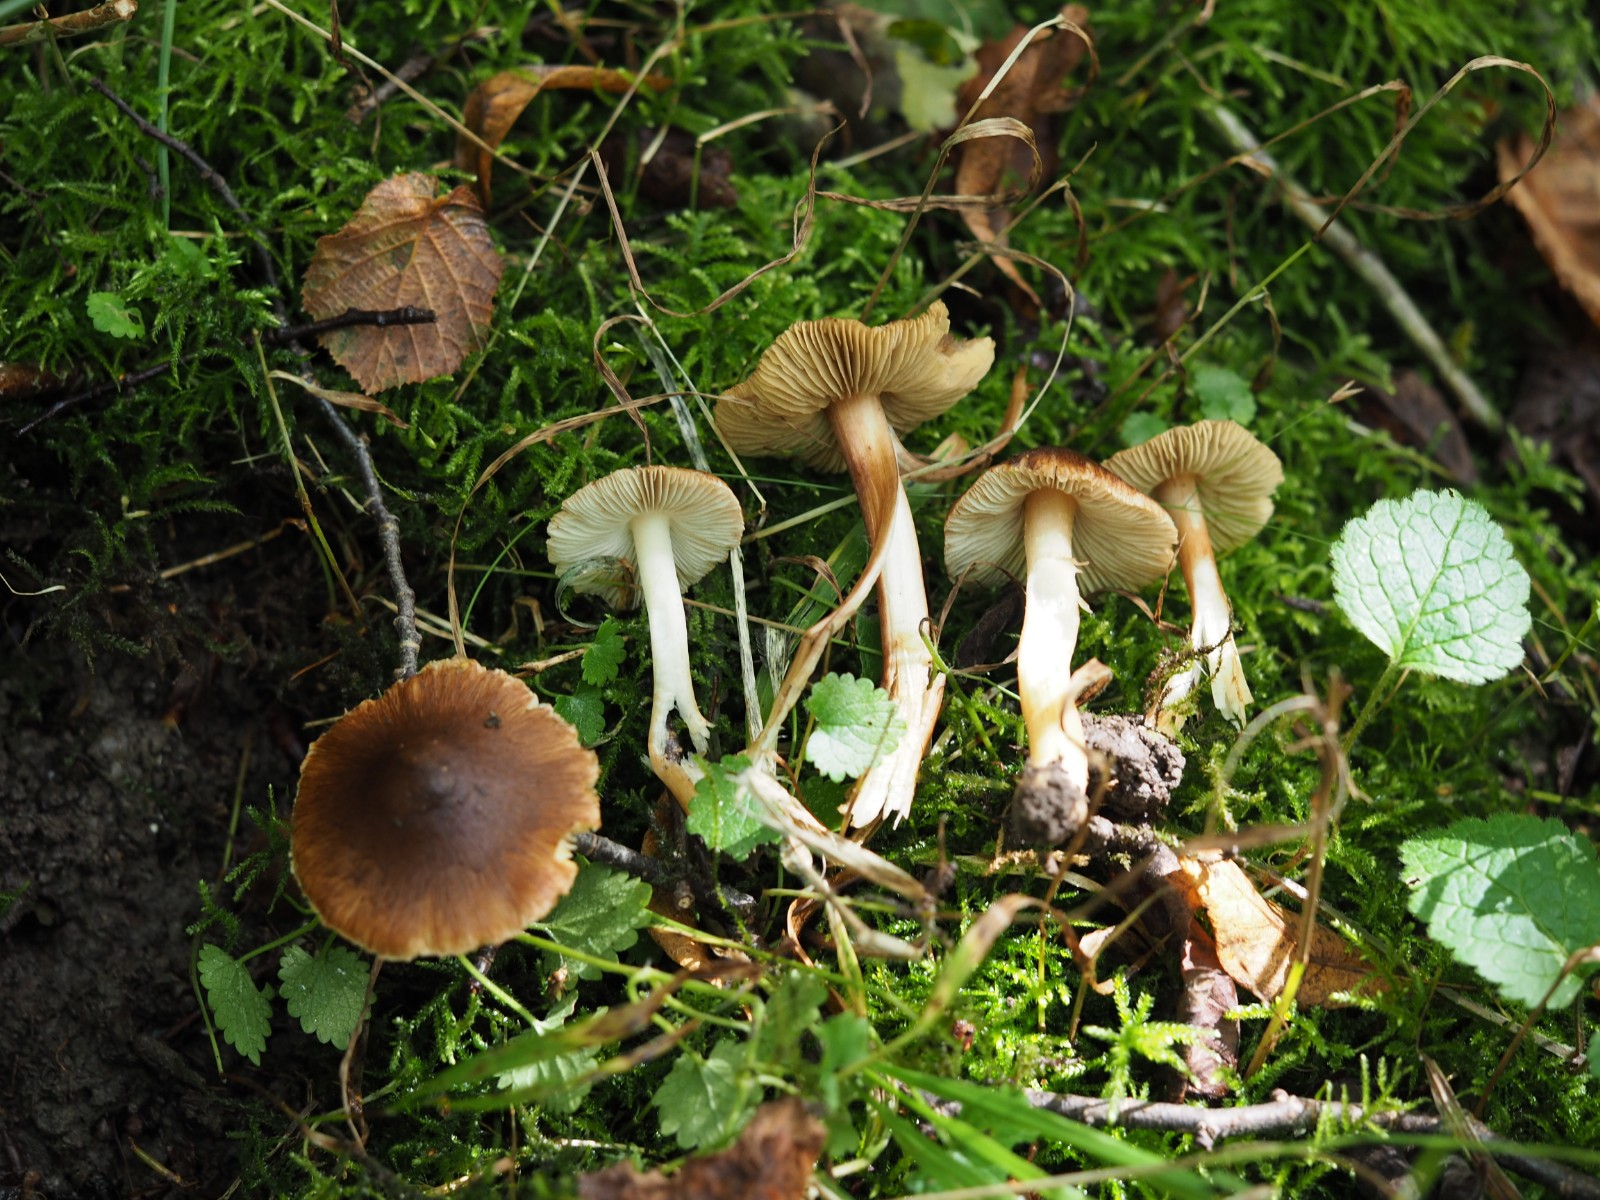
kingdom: Fungi
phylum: Basidiomycota
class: Agaricomycetes
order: Agaricales
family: Inocybaceae
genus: Inosperma
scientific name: Inosperma fulvum
